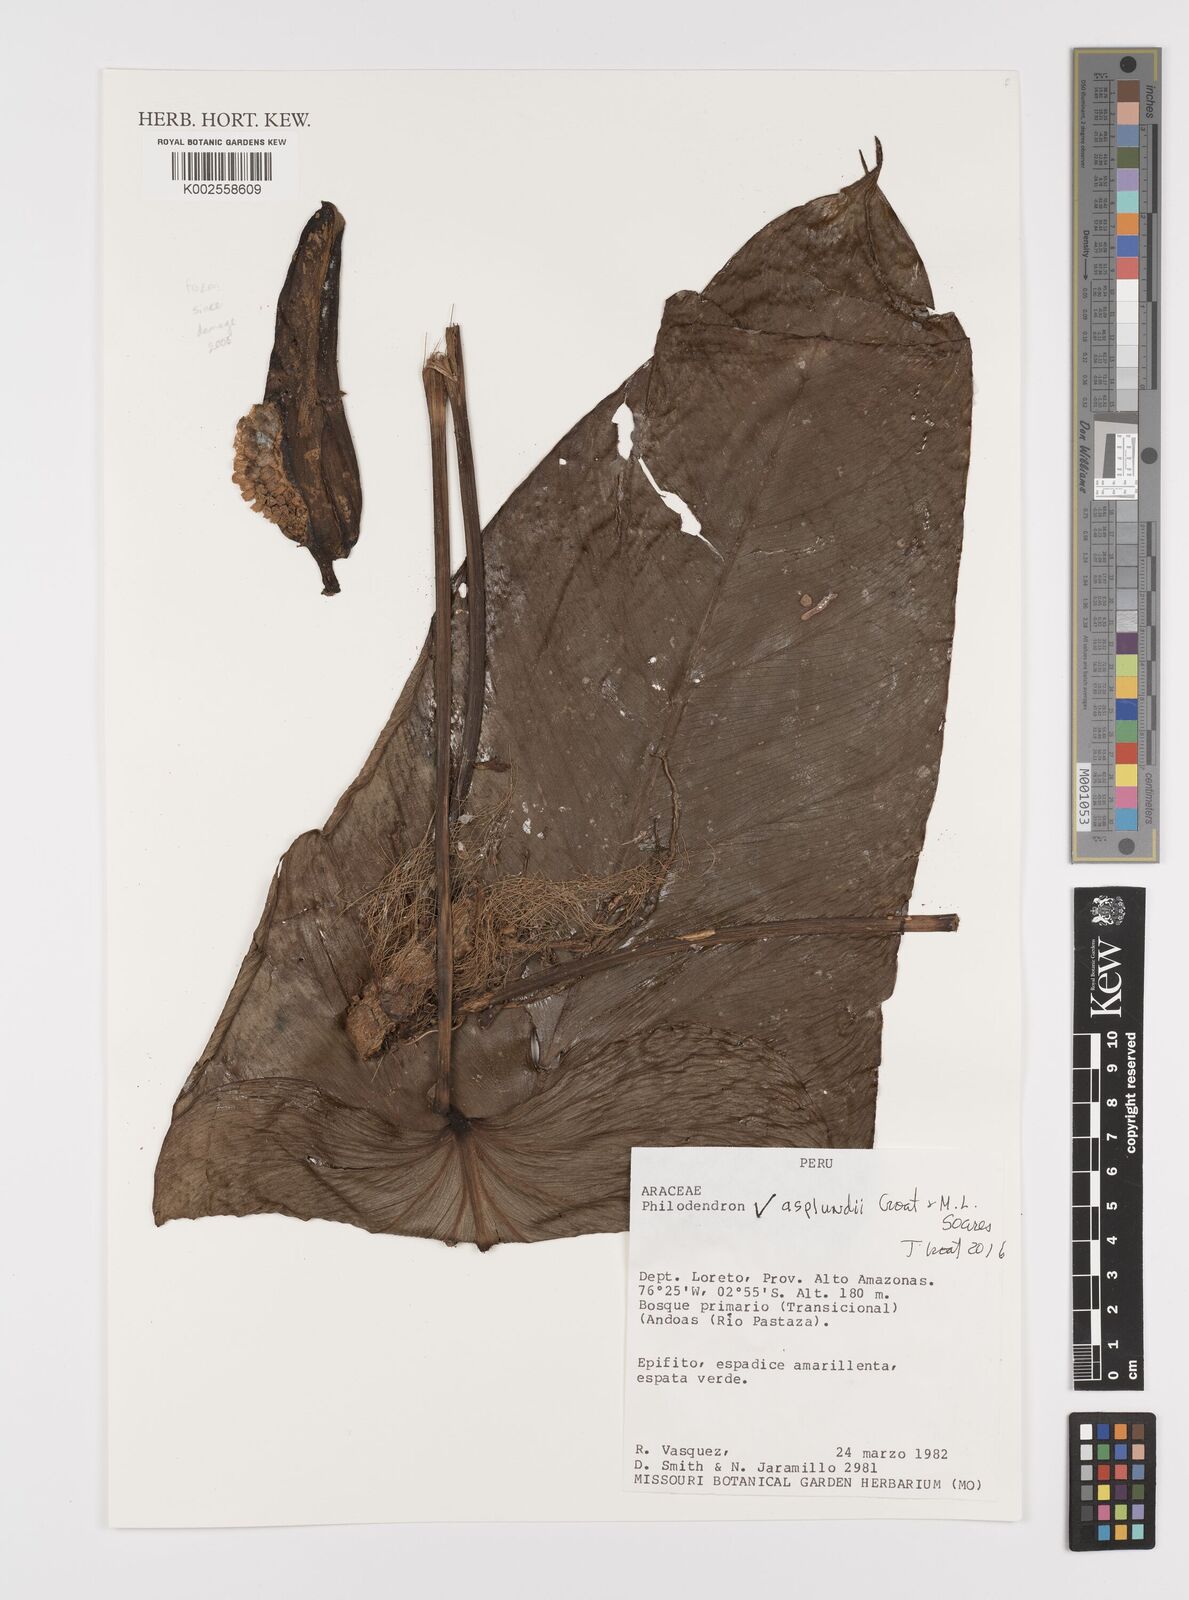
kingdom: Plantae
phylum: Tracheophyta
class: Liliopsida
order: Alismatales
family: Araceae
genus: Philodendron
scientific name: Philodendron asplundii
